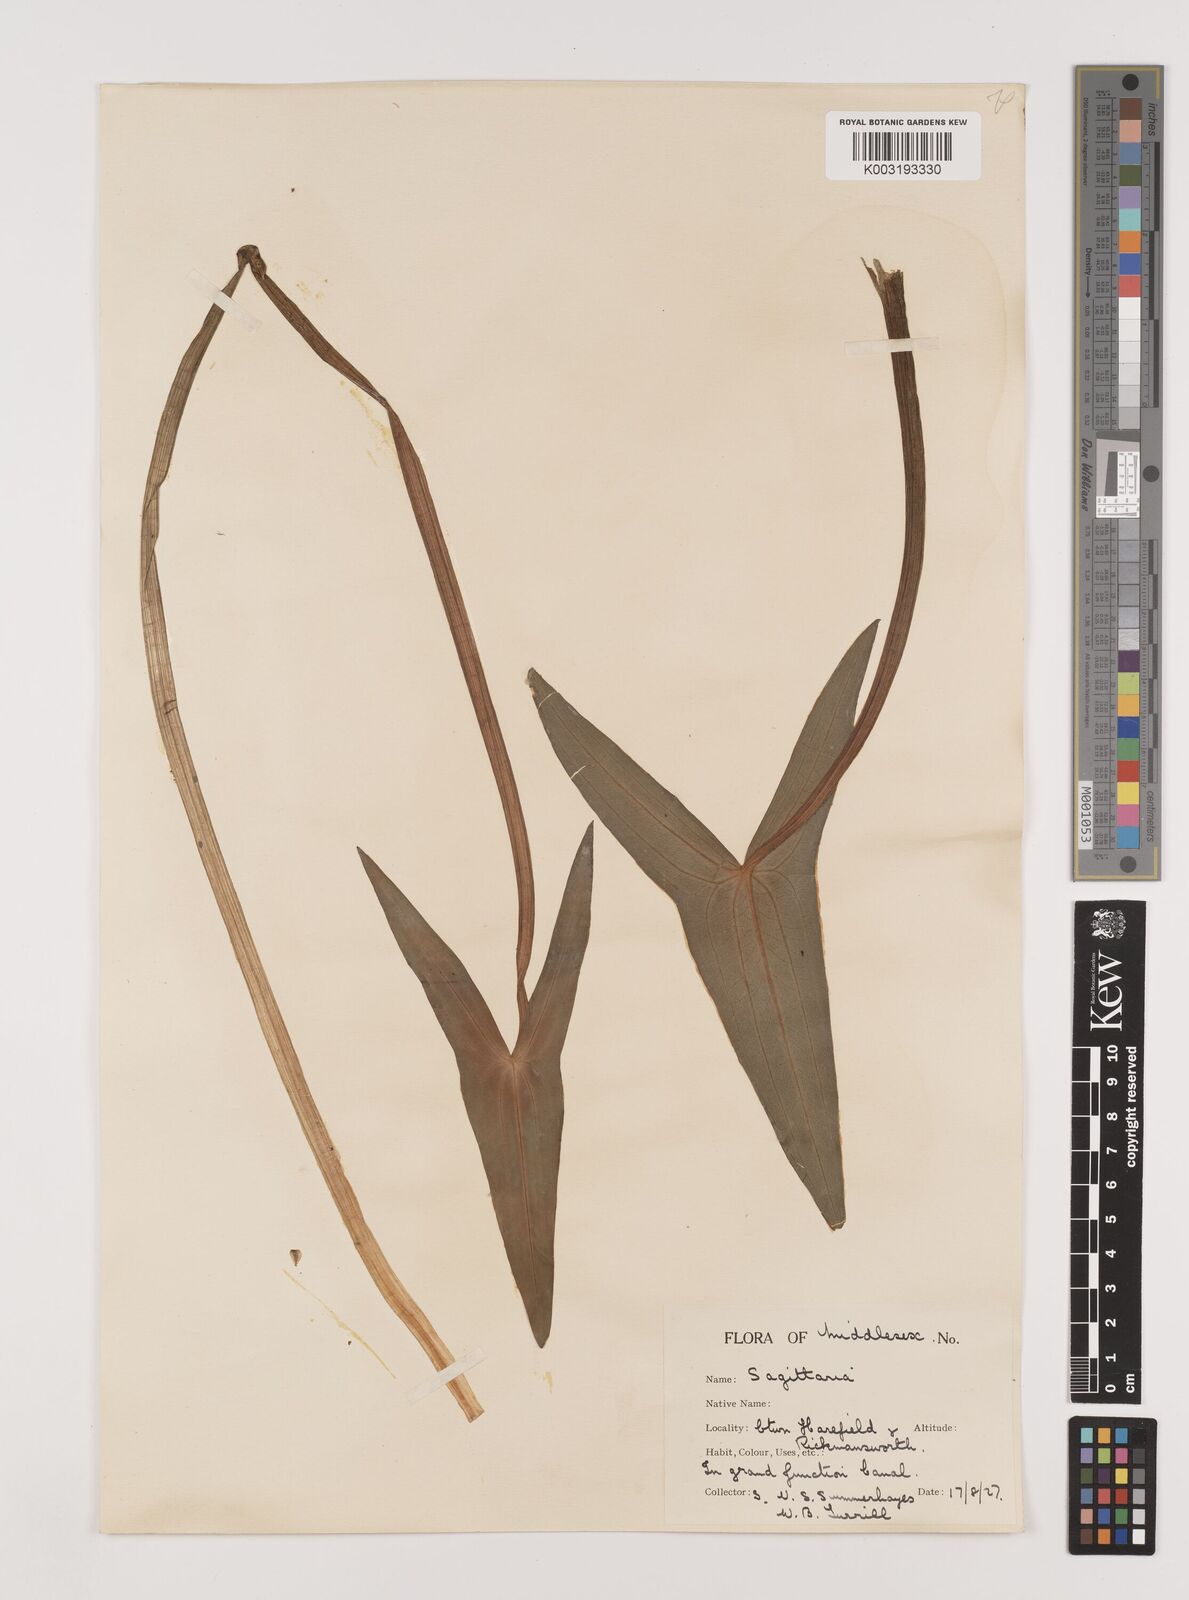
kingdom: Plantae
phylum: Tracheophyta
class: Liliopsida
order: Alismatales
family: Alismataceae
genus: Sagittaria
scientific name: Sagittaria sagittifolia
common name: Arrowhead
